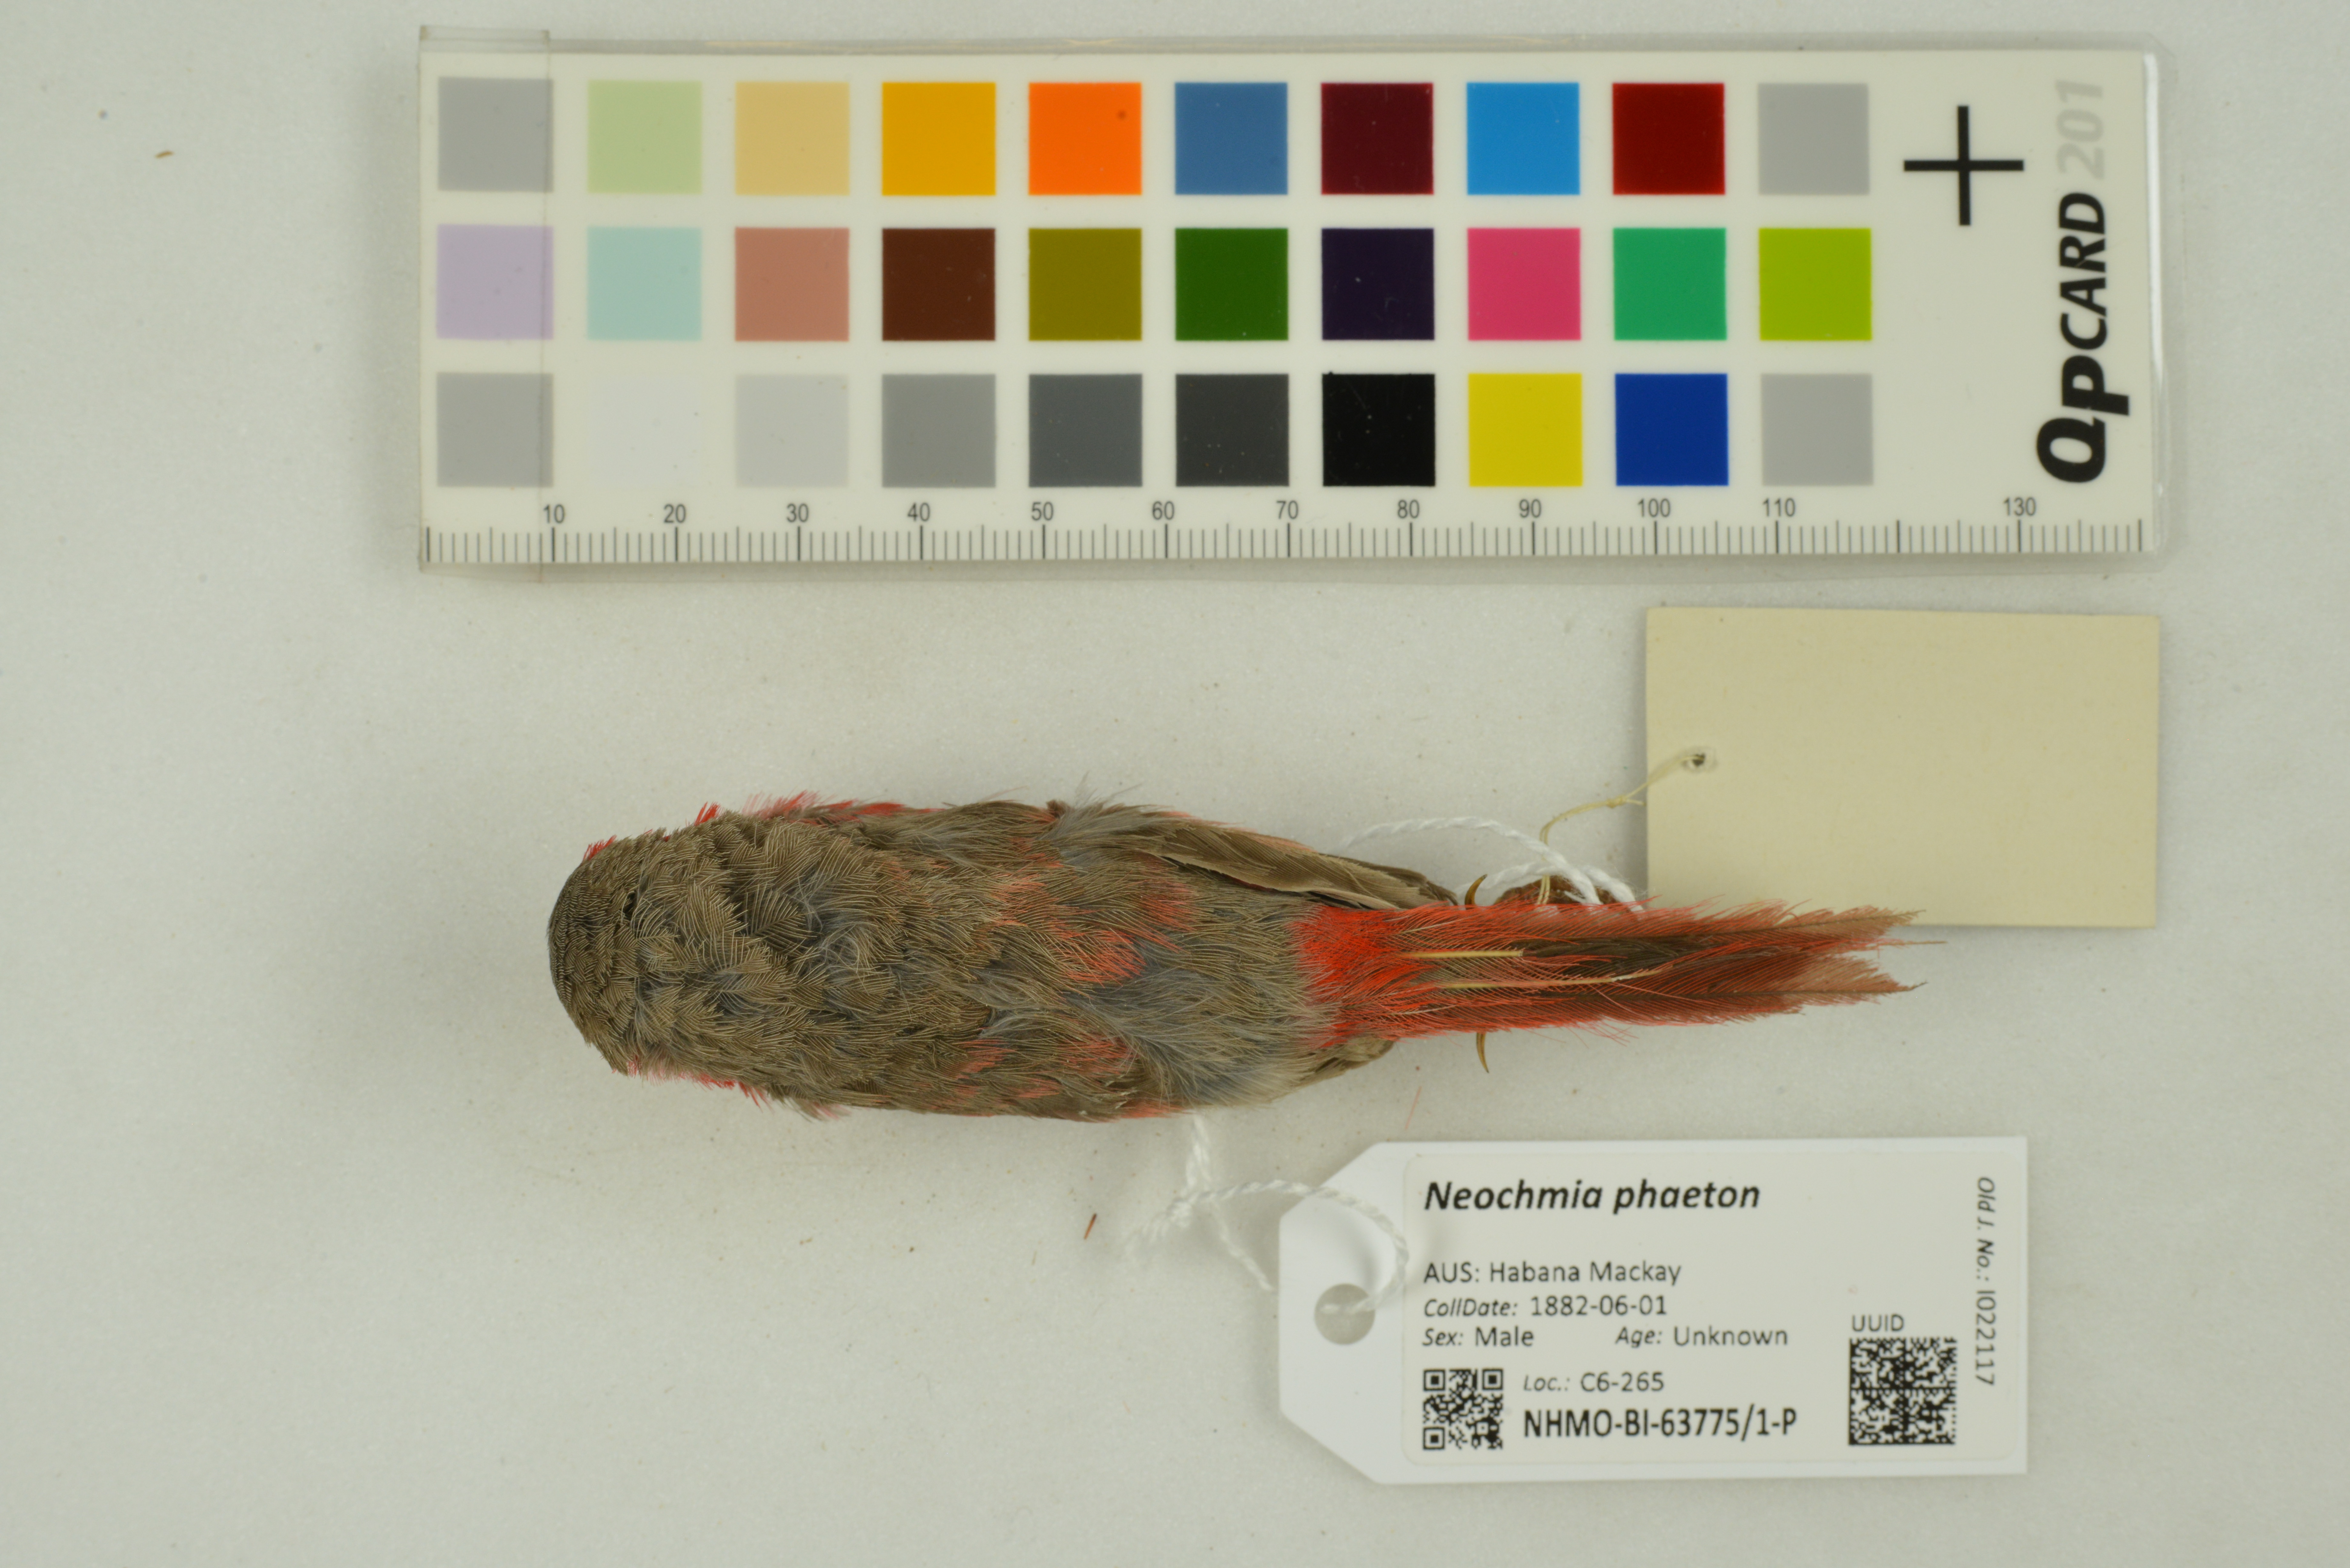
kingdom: Animalia
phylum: Chordata
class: Aves
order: Passeriformes
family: Estrildidae
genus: Neochmia
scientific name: Neochmia phaeton
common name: Crimson finch
